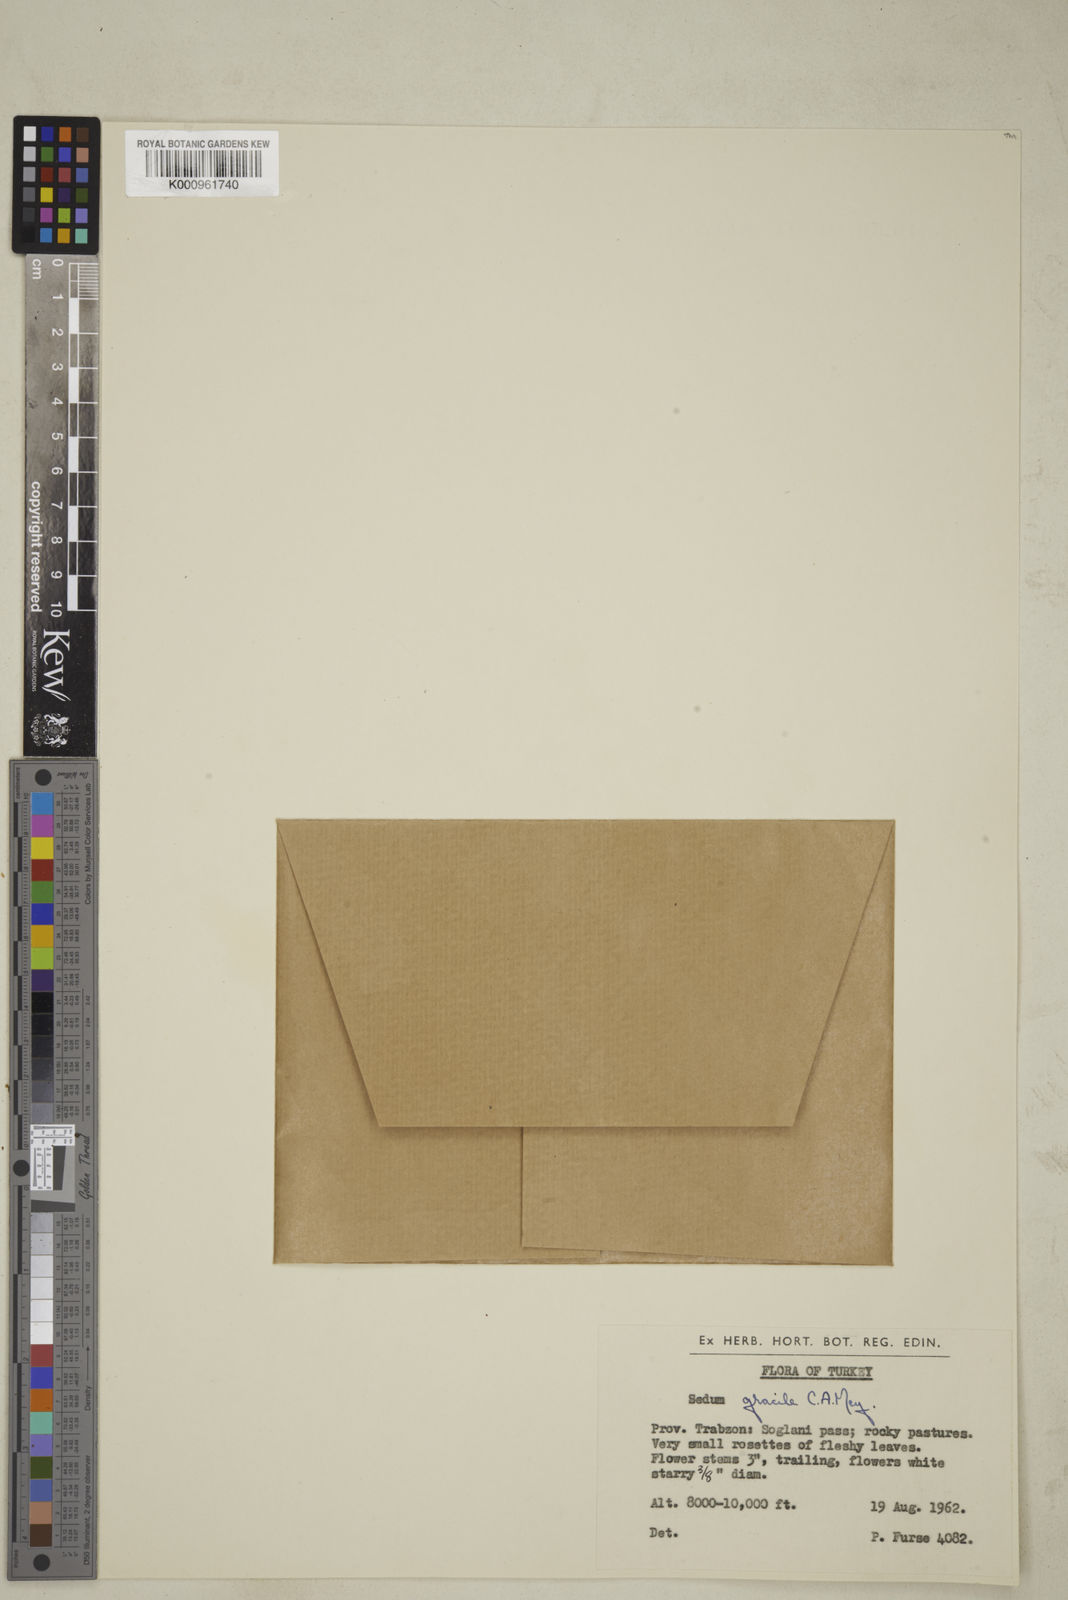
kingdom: Plantae
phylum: Tracheophyta
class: Magnoliopsida
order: Saxifragales
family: Crassulaceae
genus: Sedum
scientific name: Sedum gracile
